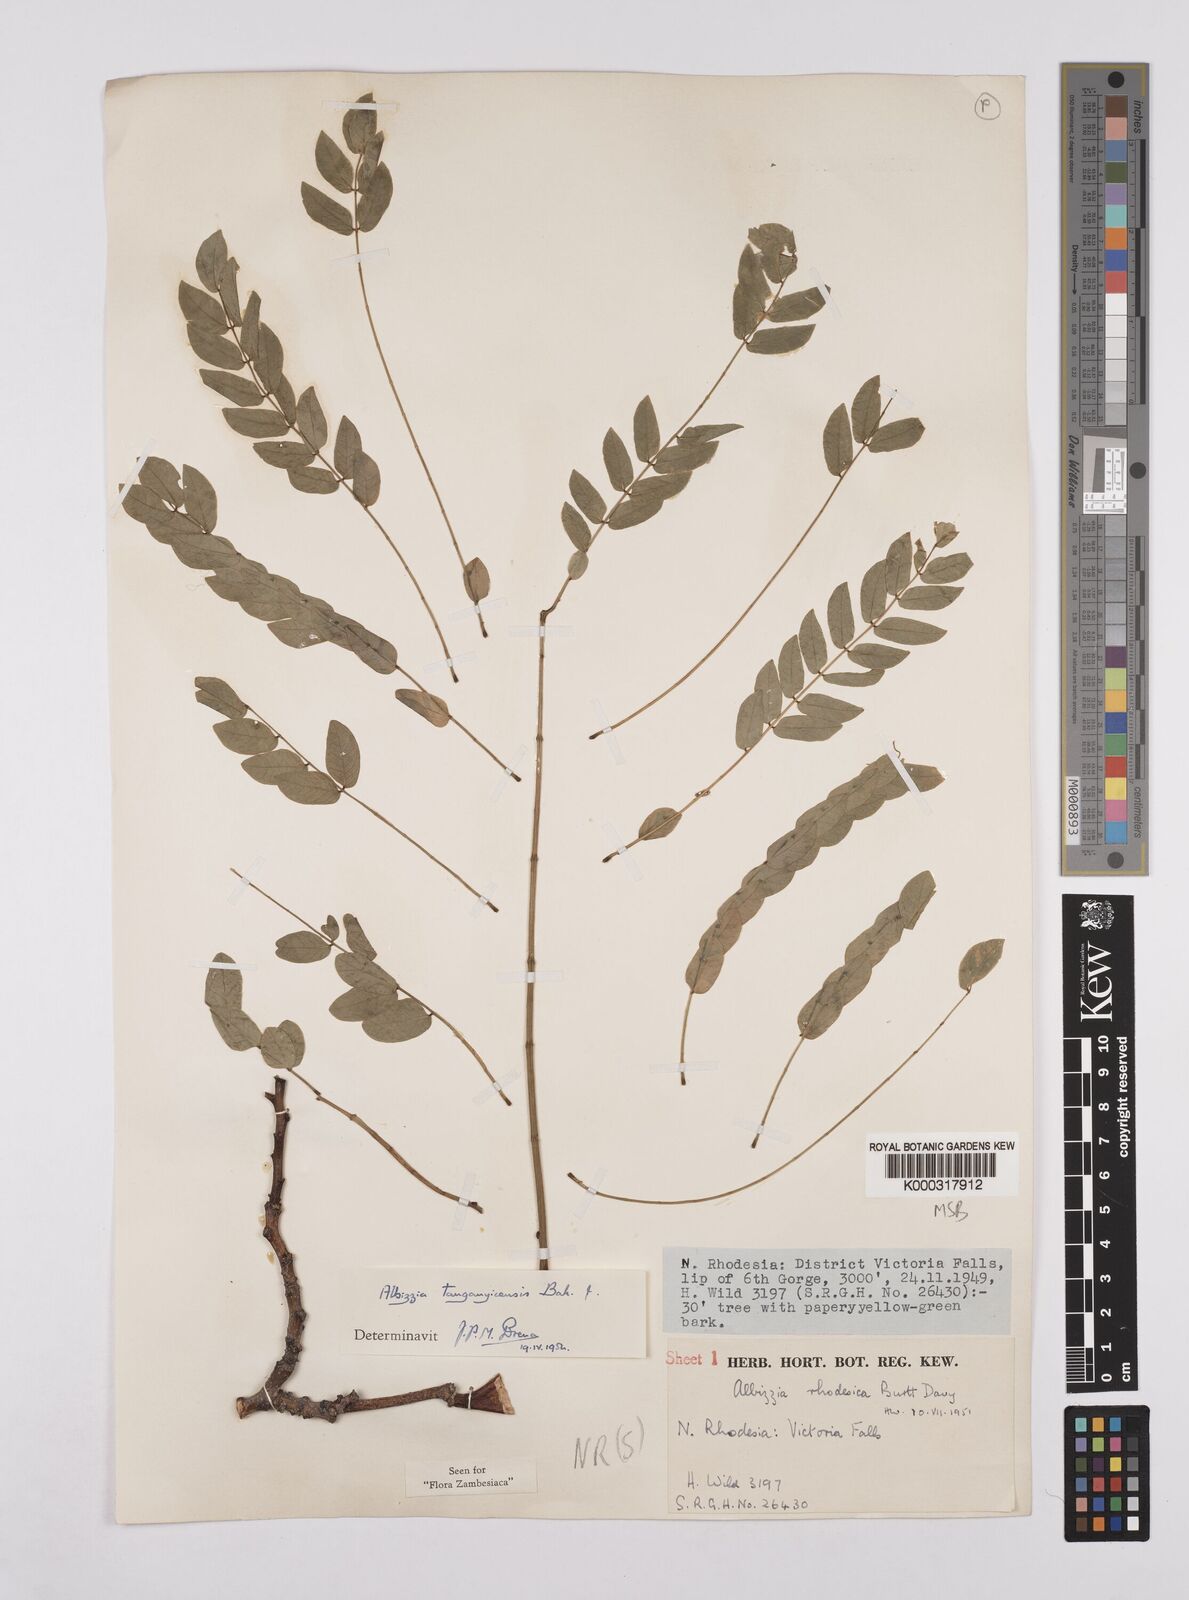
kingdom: Plantae
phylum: Tracheophyta
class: Magnoliopsida
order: Fabales
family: Fabaceae
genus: Albizia
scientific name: Albizia tanganyicensis
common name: Paperbark false thorn
